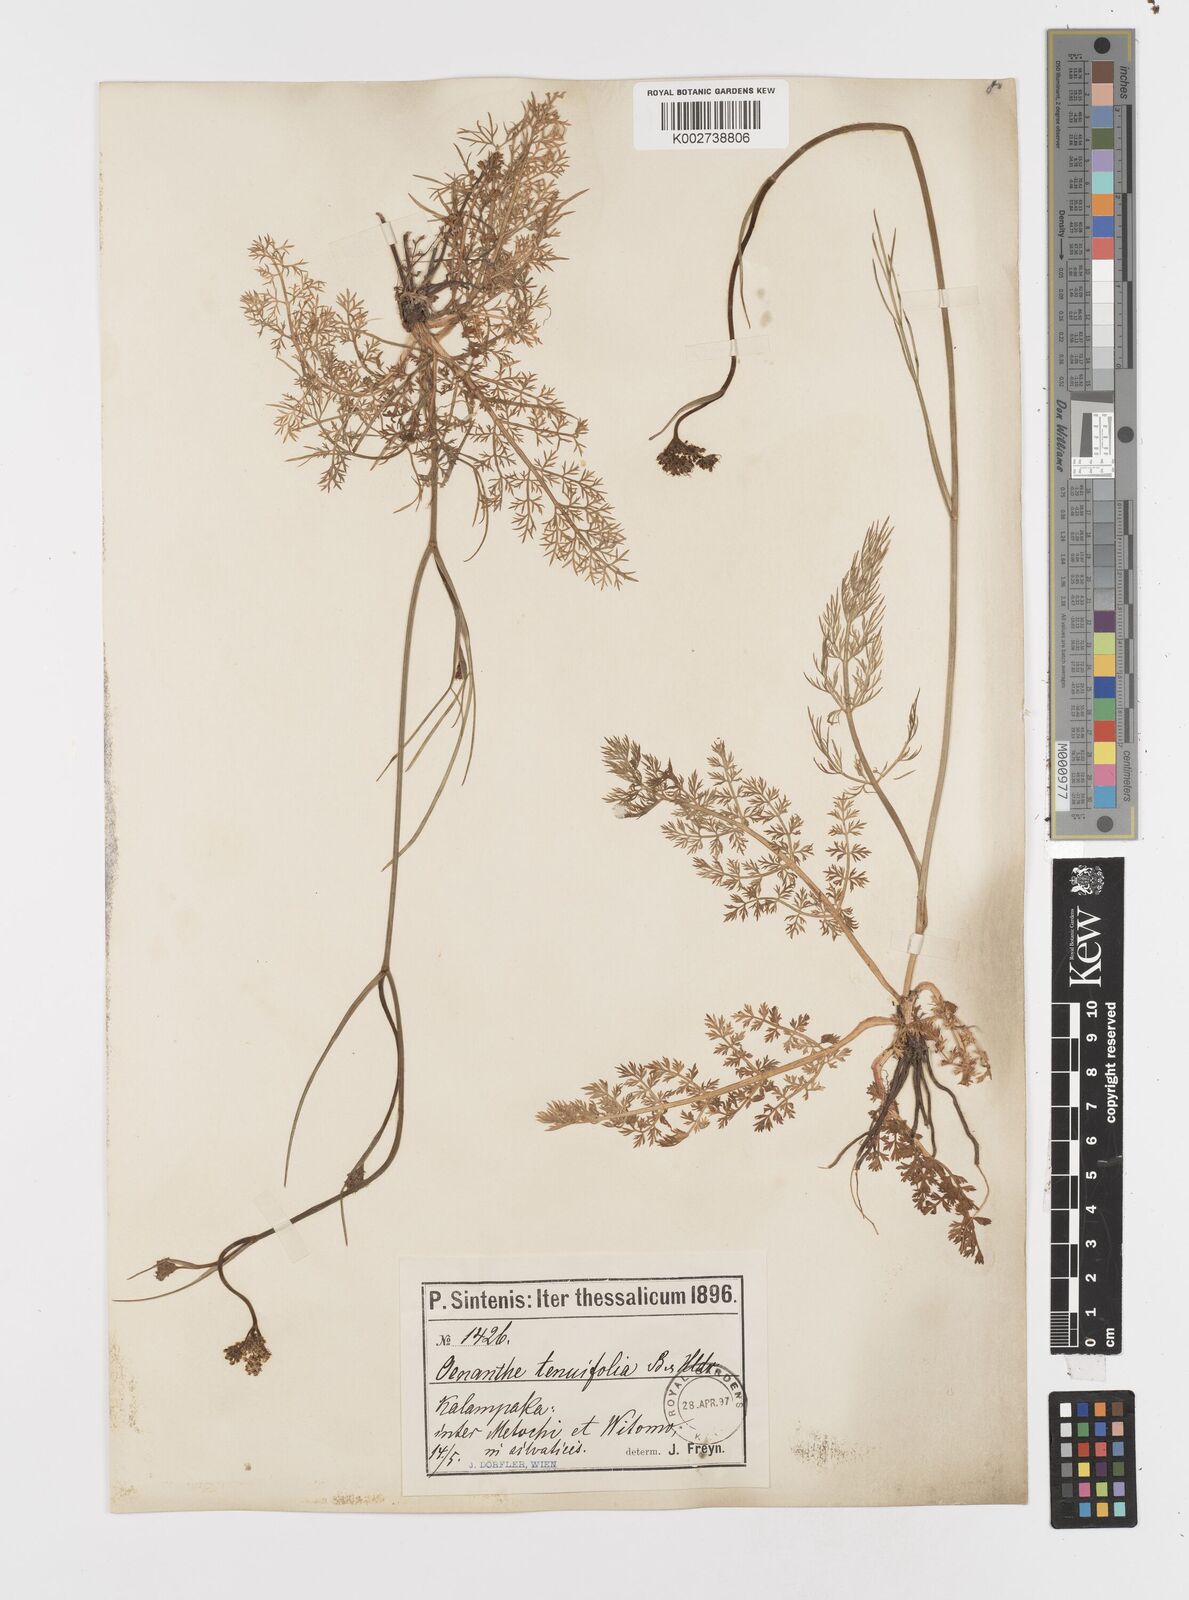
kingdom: Plantae
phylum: Tracheophyta
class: Magnoliopsida
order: Apiales
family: Apiaceae
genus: Oenanthe
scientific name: Oenanthe montis-khortiati
